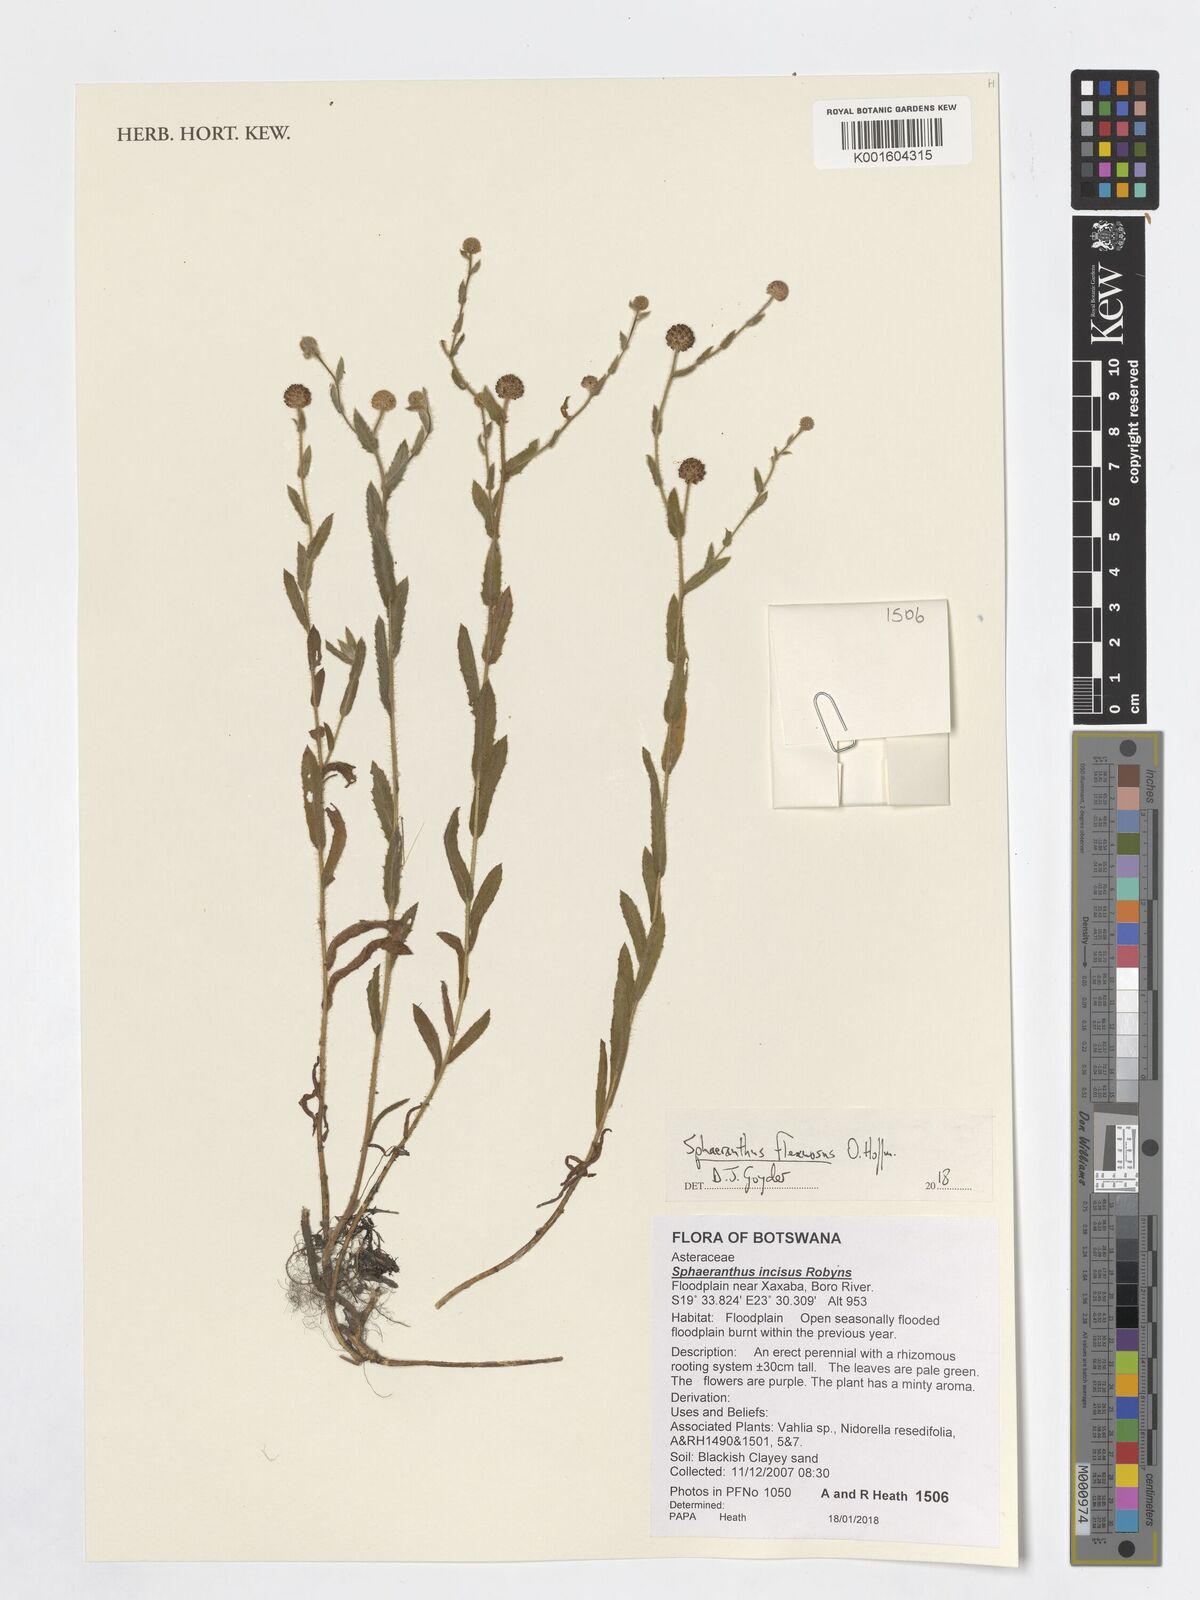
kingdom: Plantae
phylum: Tracheophyta
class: Magnoliopsida
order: Asterales
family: Asteraceae
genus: Sphaeranthus
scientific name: Sphaeranthus flexuosus
